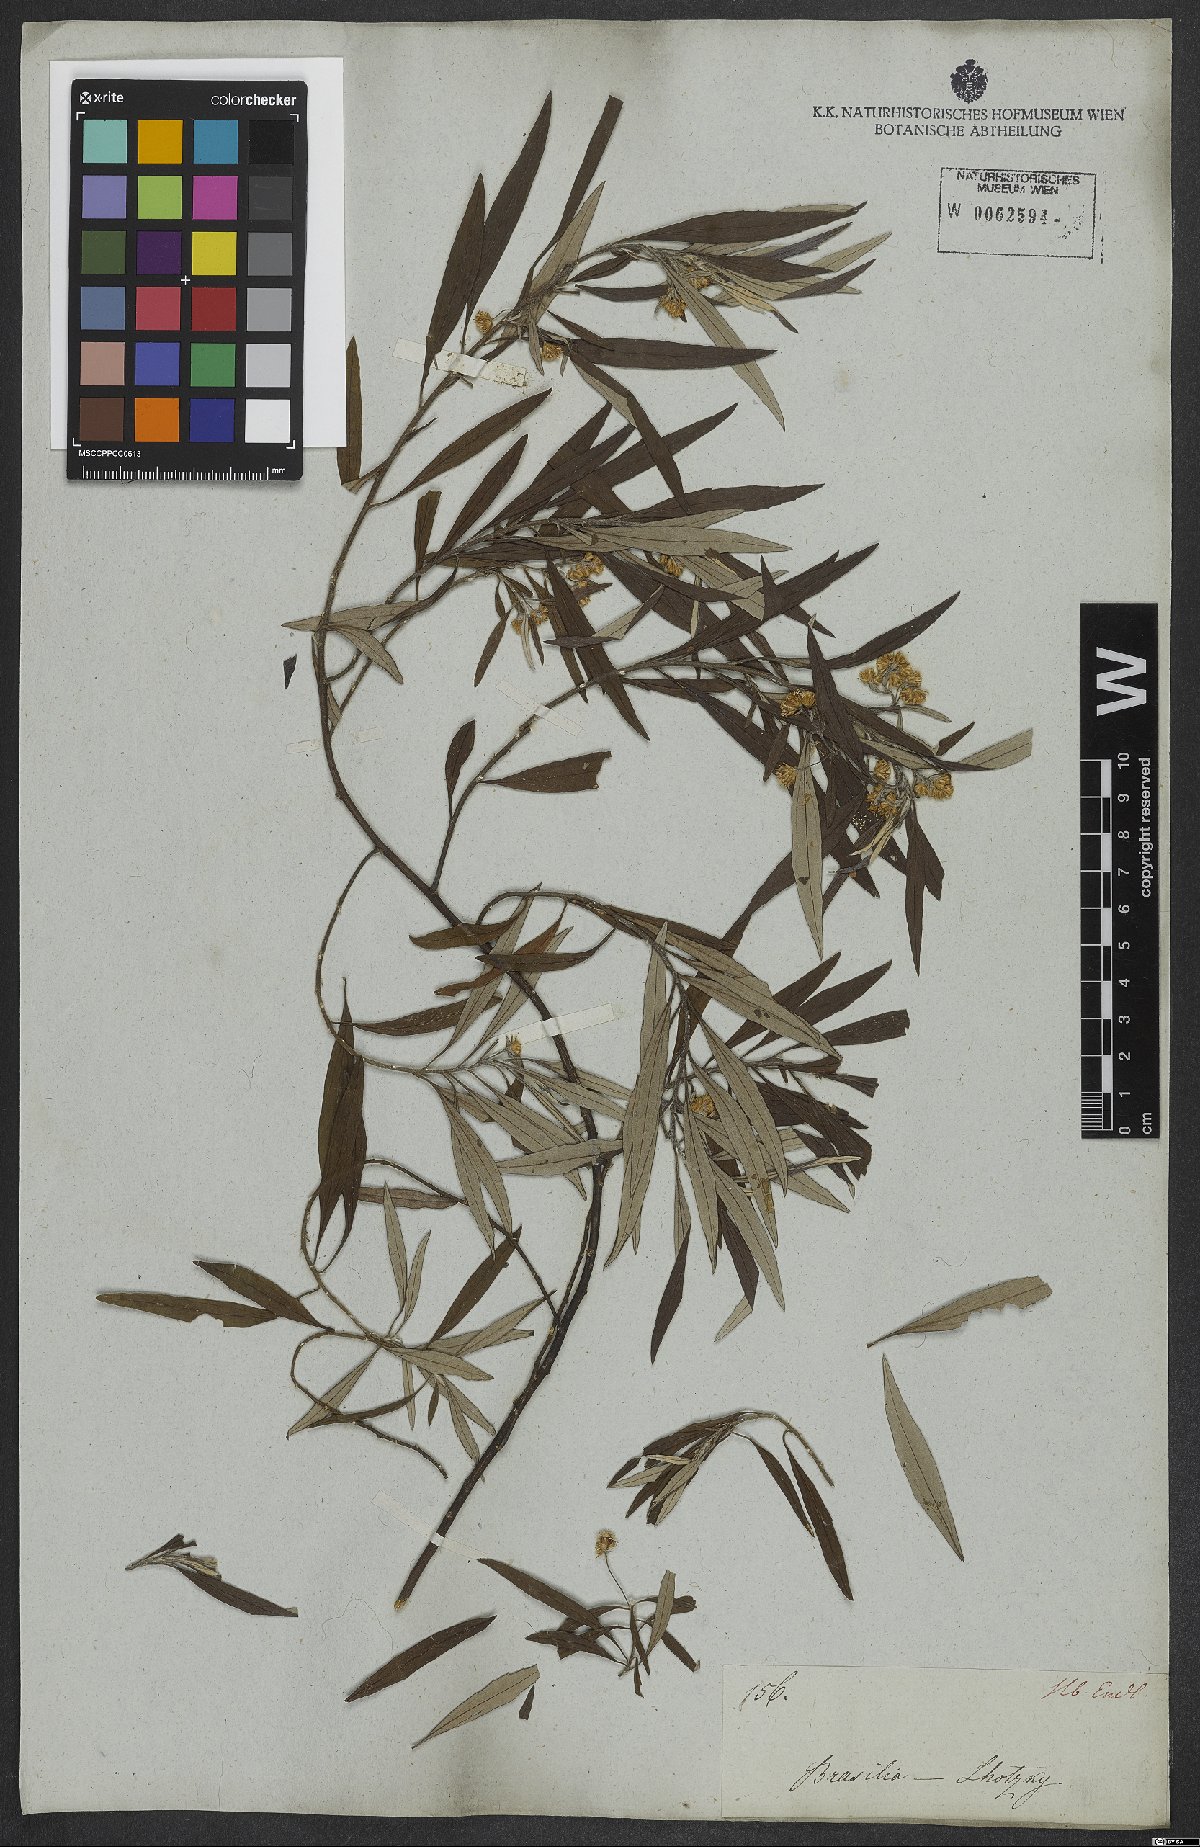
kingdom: Plantae
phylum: Tracheophyta
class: Magnoliopsida
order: Asterales
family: Asteraceae
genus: Baccharis
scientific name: Baccharis montana
